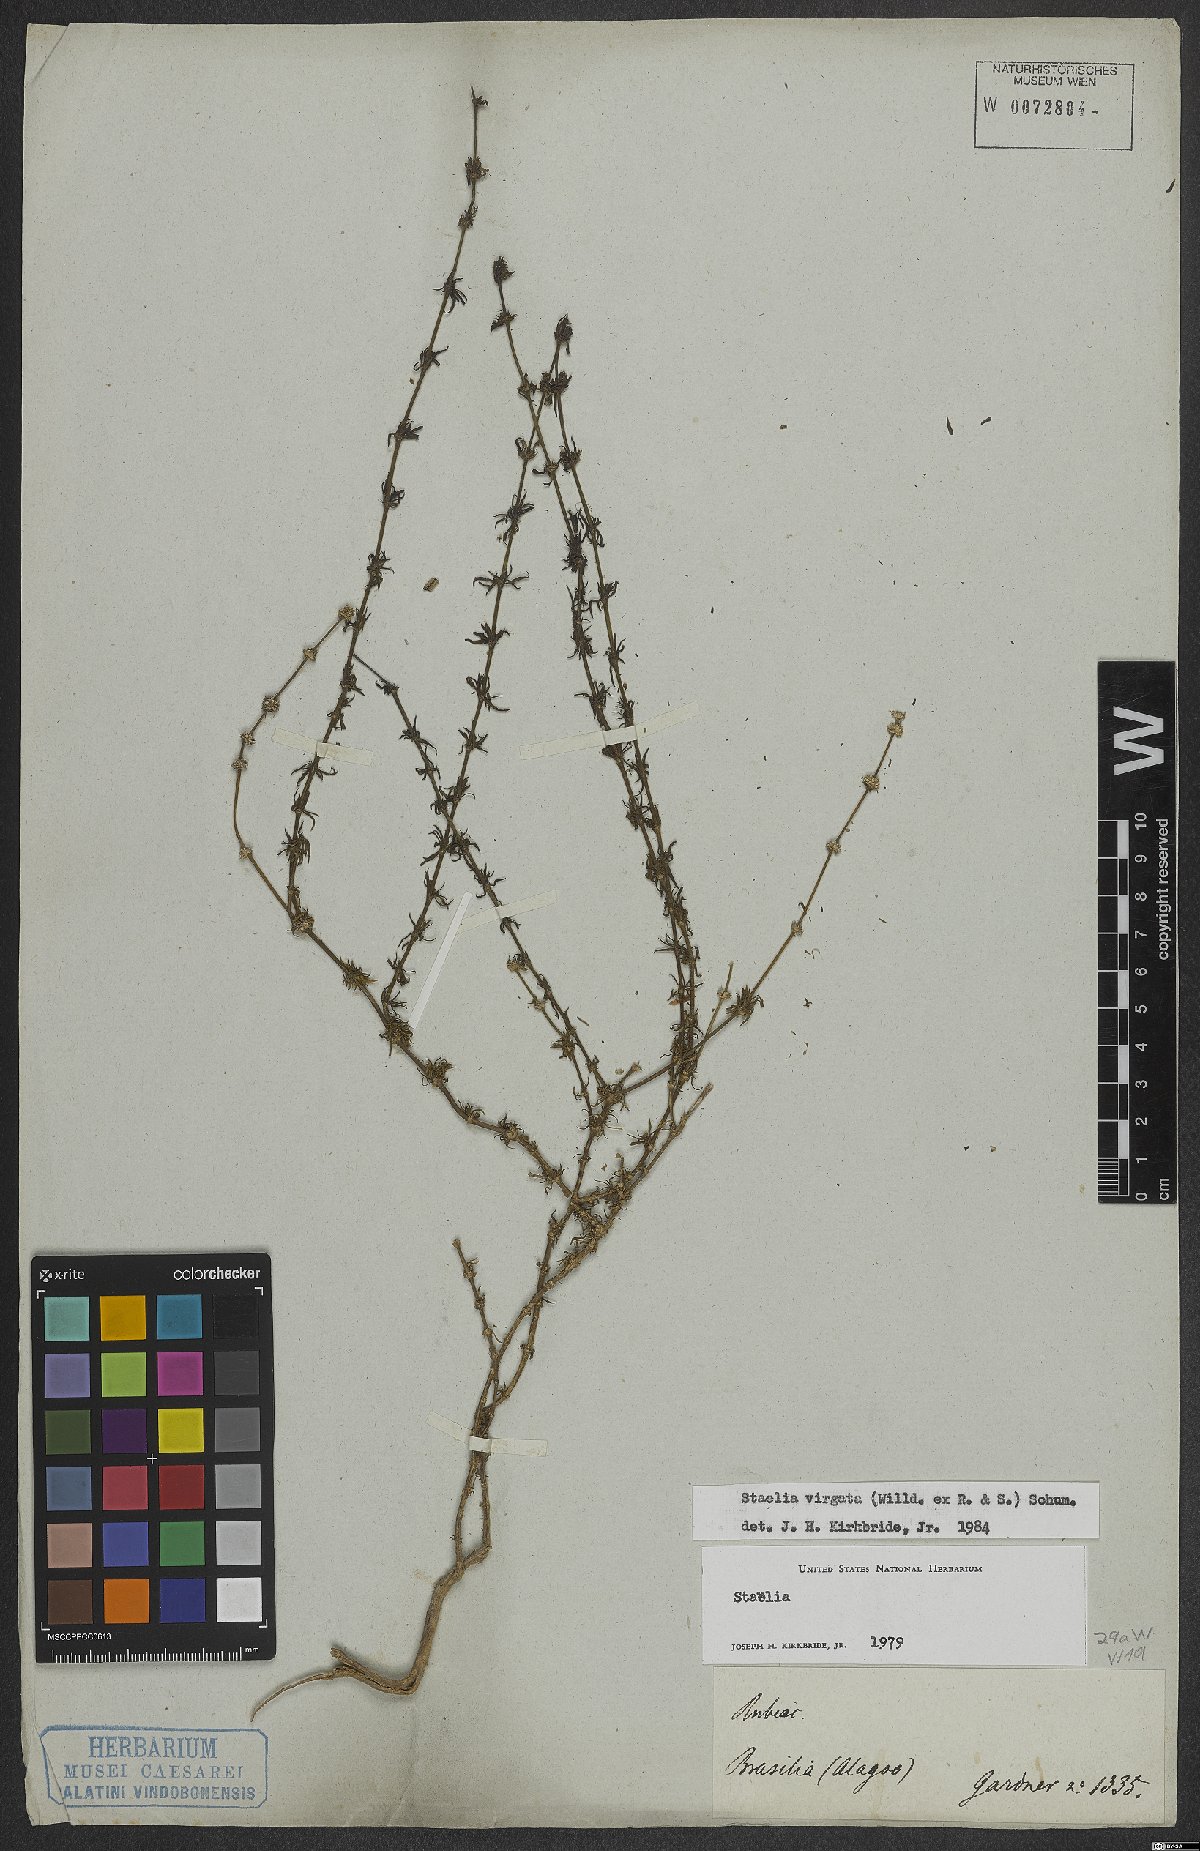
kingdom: Plantae
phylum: Tracheophyta
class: Magnoliopsida
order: Gentianales
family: Rubiaceae
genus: Staelia
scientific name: Staelia virgata
